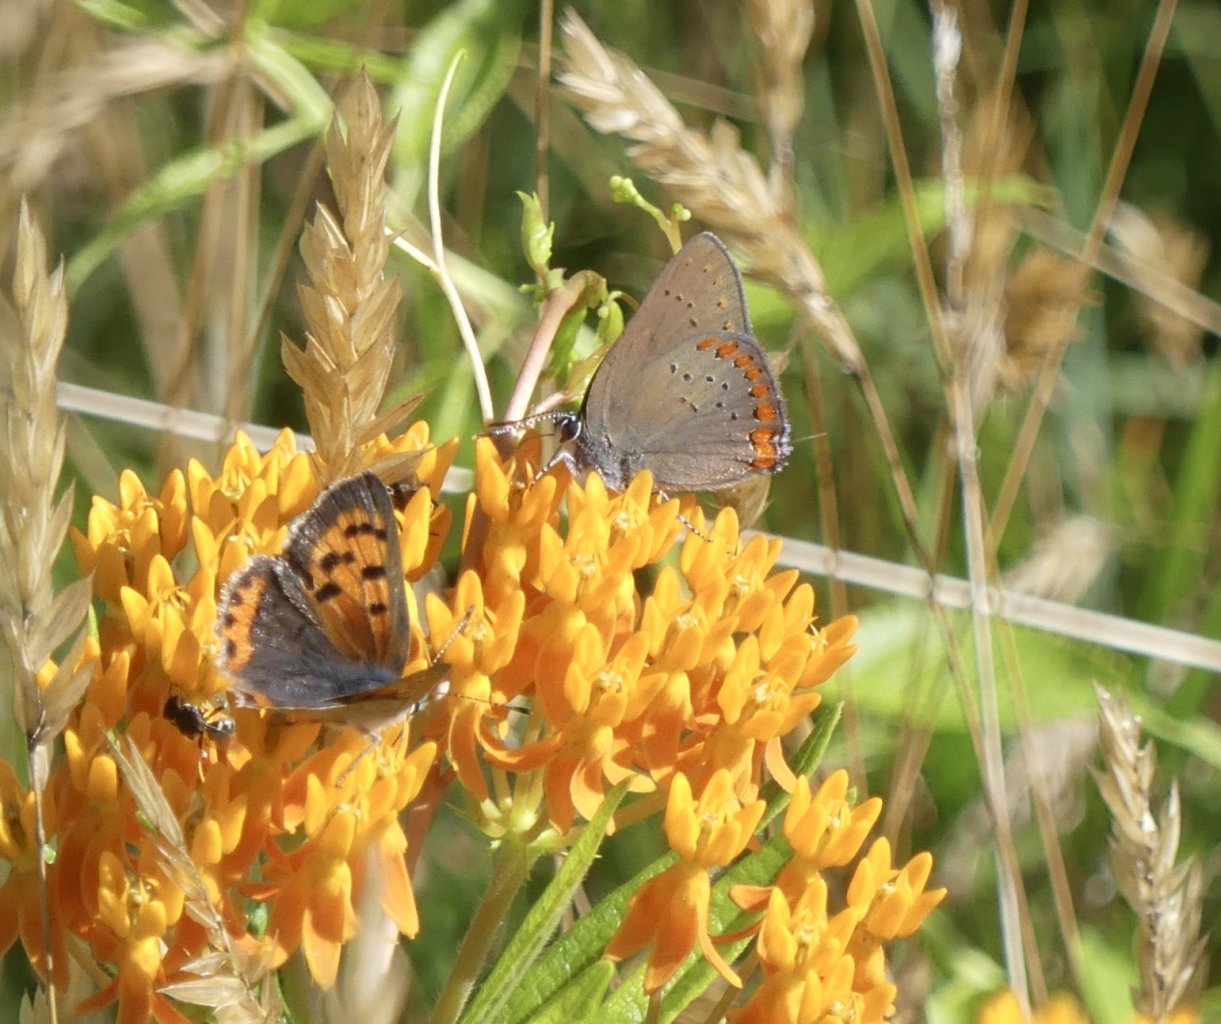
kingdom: Animalia
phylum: Arthropoda
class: Insecta
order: Lepidoptera
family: Lycaenidae
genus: Lycaena
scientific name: Lycaena phlaeas
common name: American Copper
